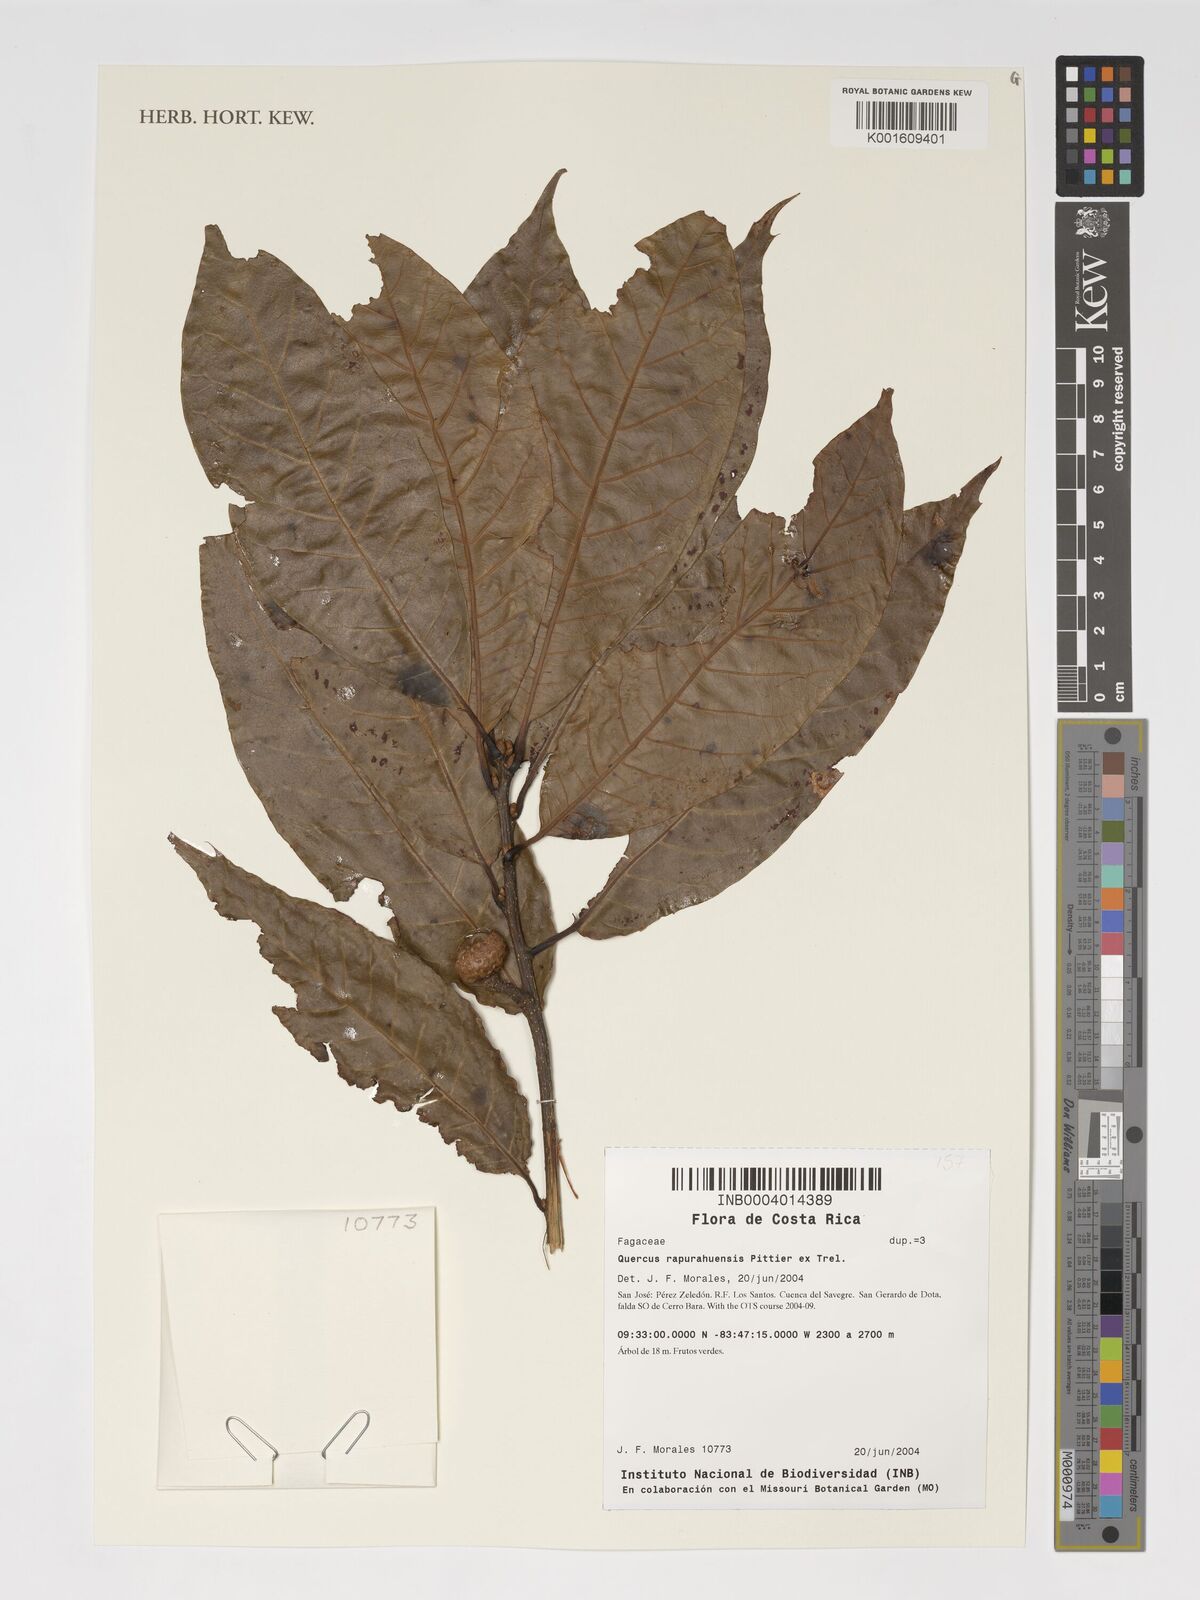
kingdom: Plantae
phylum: Tracheophyta
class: Magnoliopsida
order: Fagales
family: Fagaceae
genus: Quercus
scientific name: Quercus benthamii
